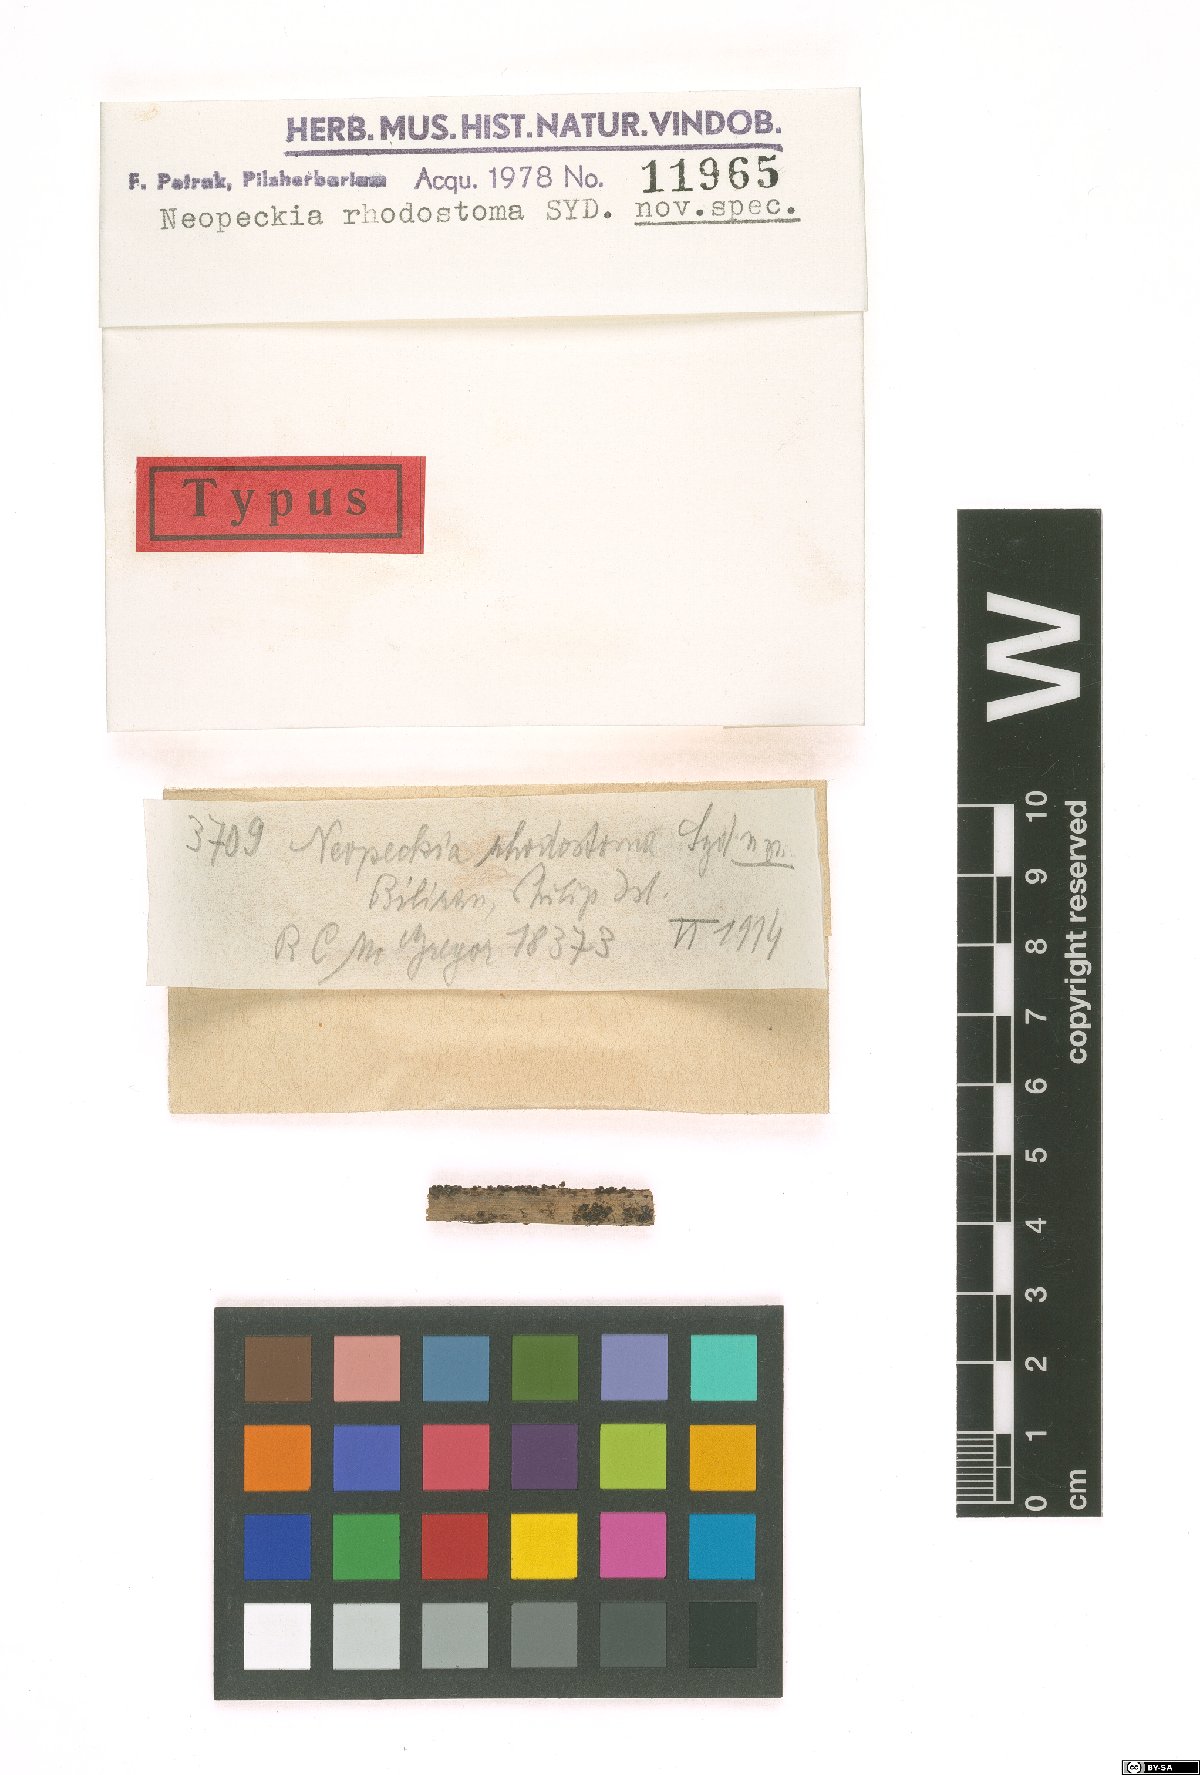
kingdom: Fungi
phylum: Ascomycota
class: Dothideomycetes
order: Dothideales
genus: Neopeckia
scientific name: Neopeckia rhodostoma
